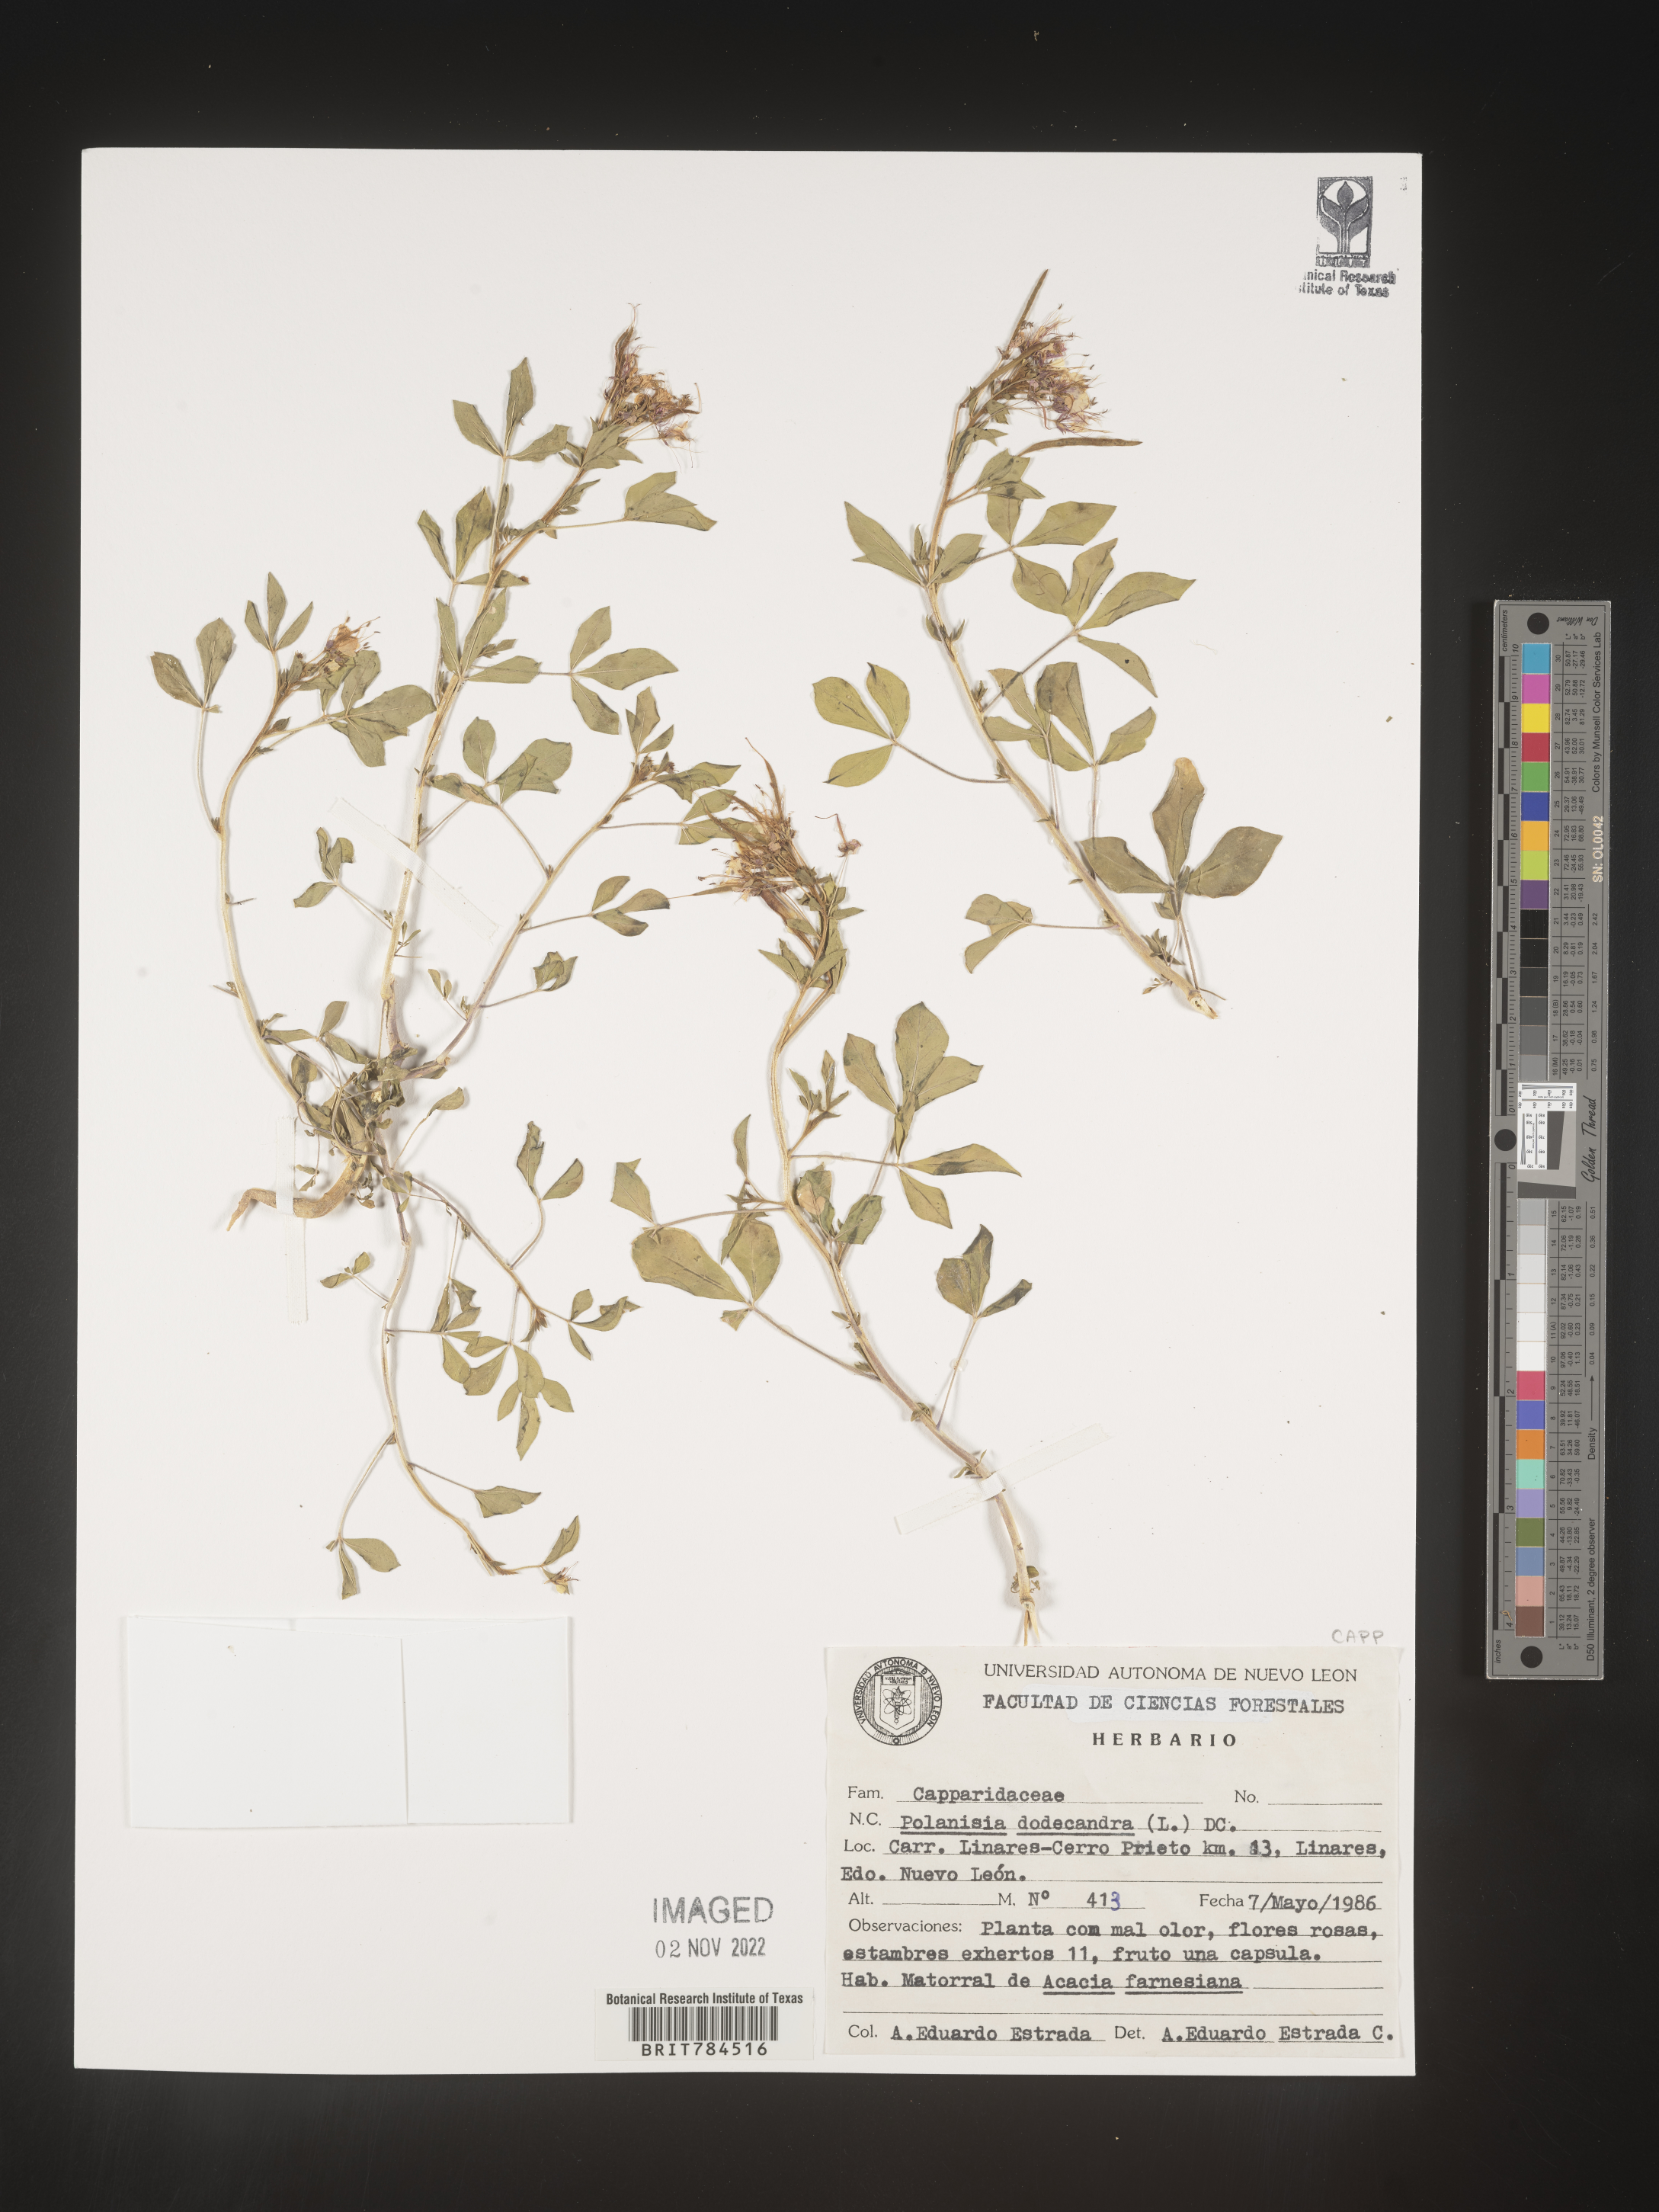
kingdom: Plantae
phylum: Tracheophyta
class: Magnoliopsida
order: Brassicales
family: Cleomaceae
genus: Polanisia
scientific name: Polanisia
